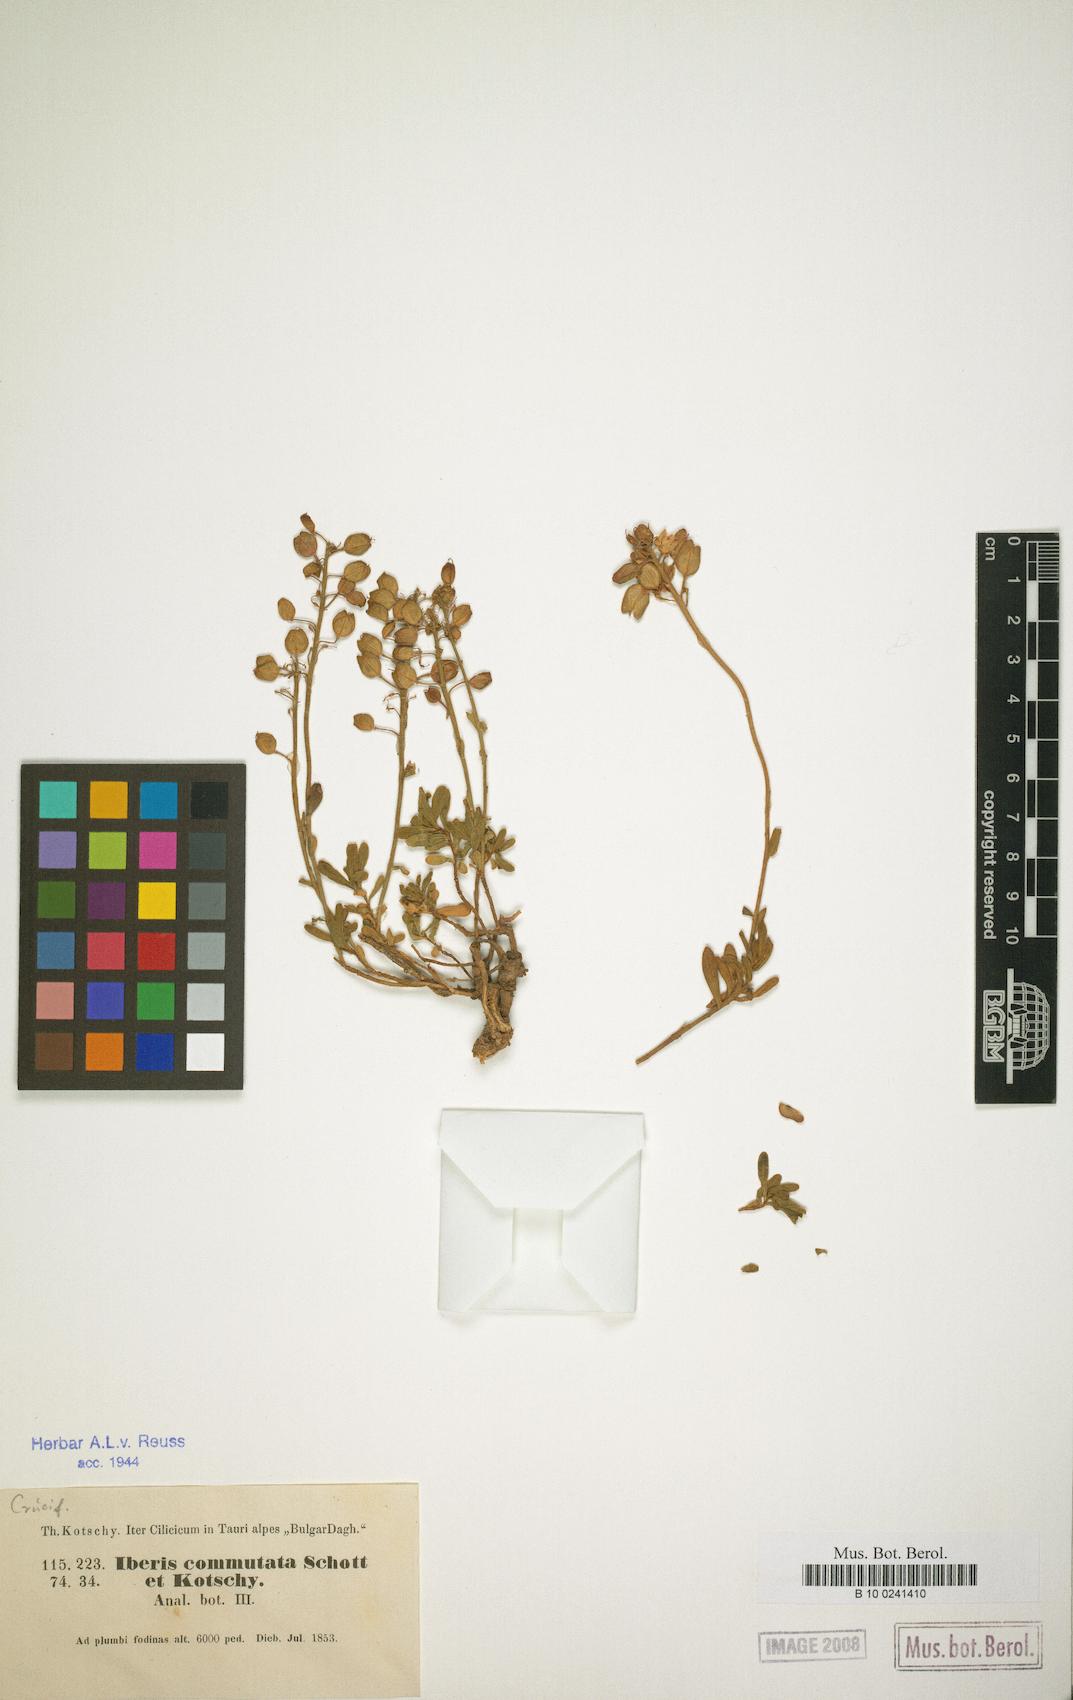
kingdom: Plantae
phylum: Tracheophyta
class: Magnoliopsida
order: Brassicales
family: Brassicaceae
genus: Iberis
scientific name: Iberis sempervirens
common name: Evergreen candytuft
